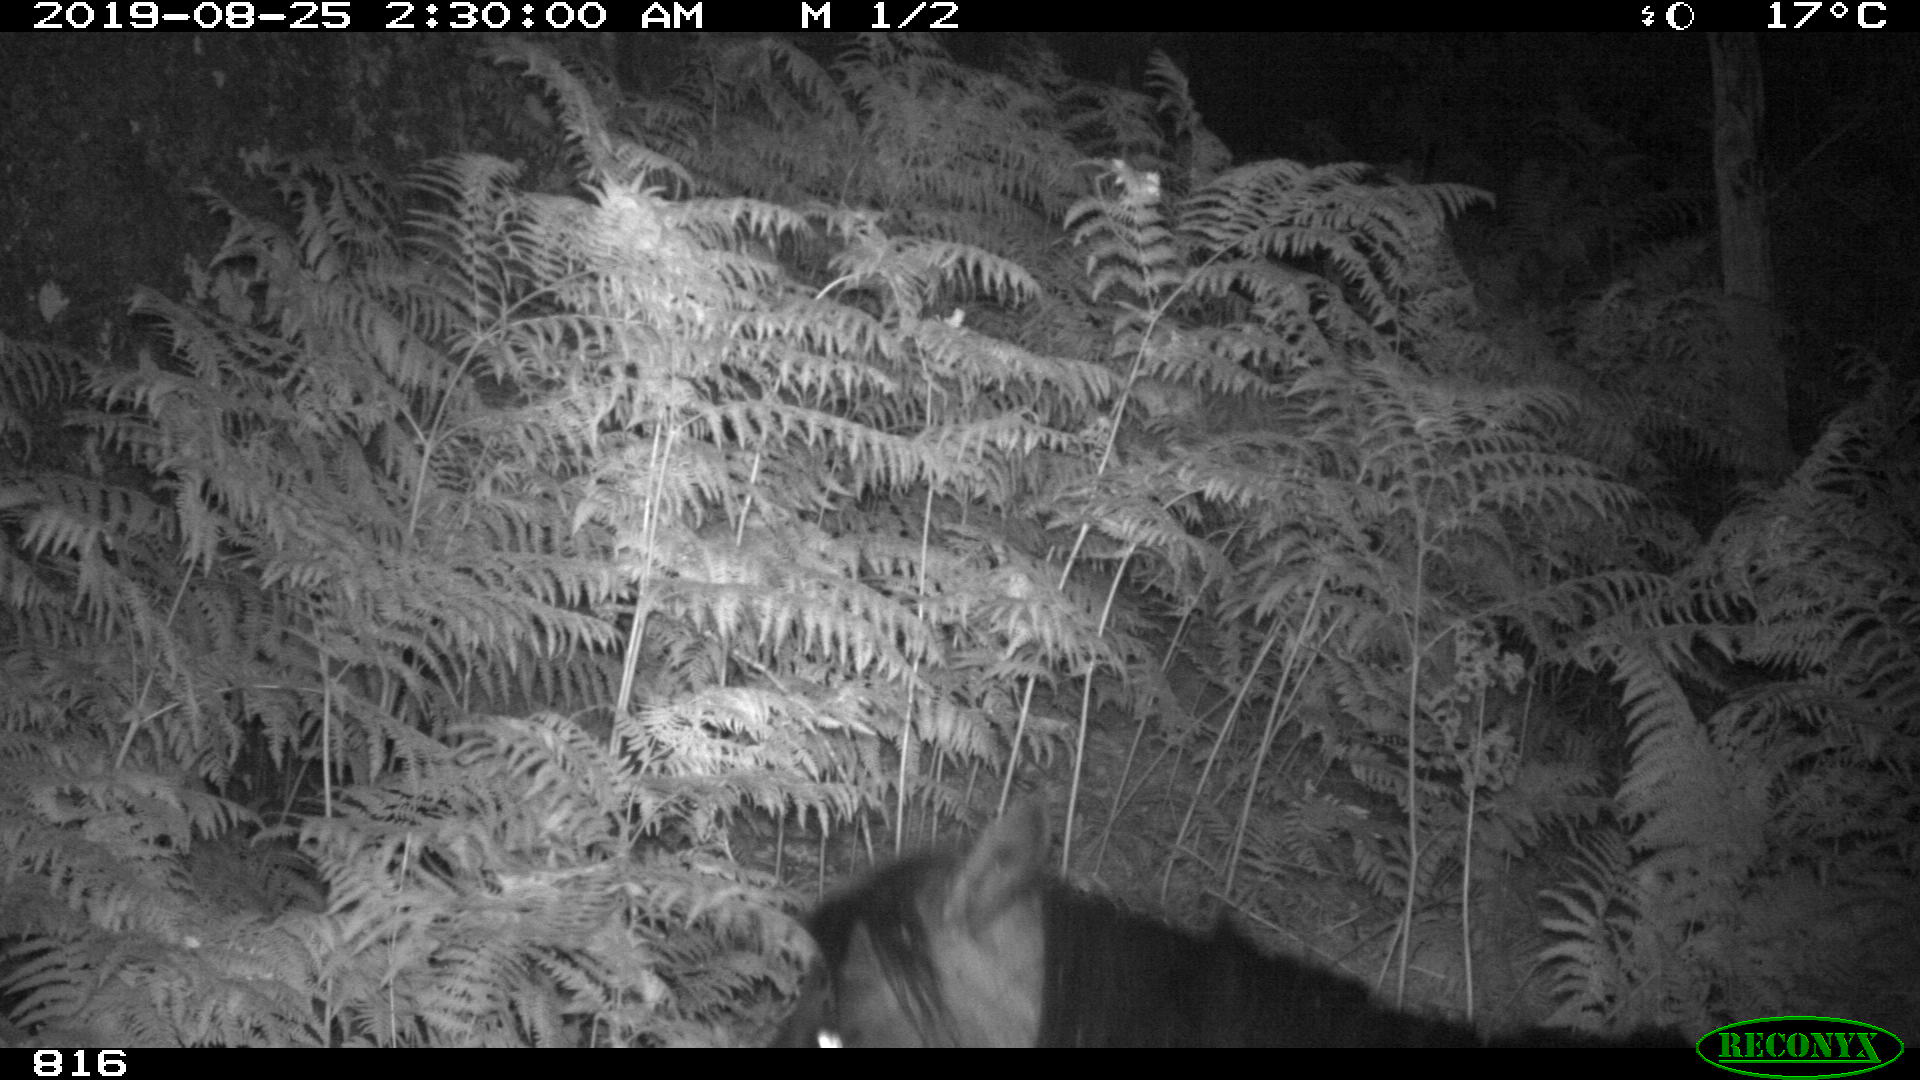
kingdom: Animalia
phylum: Chordata
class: Mammalia
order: Perissodactyla
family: Equidae
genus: Equus
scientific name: Equus caballus
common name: Horse
